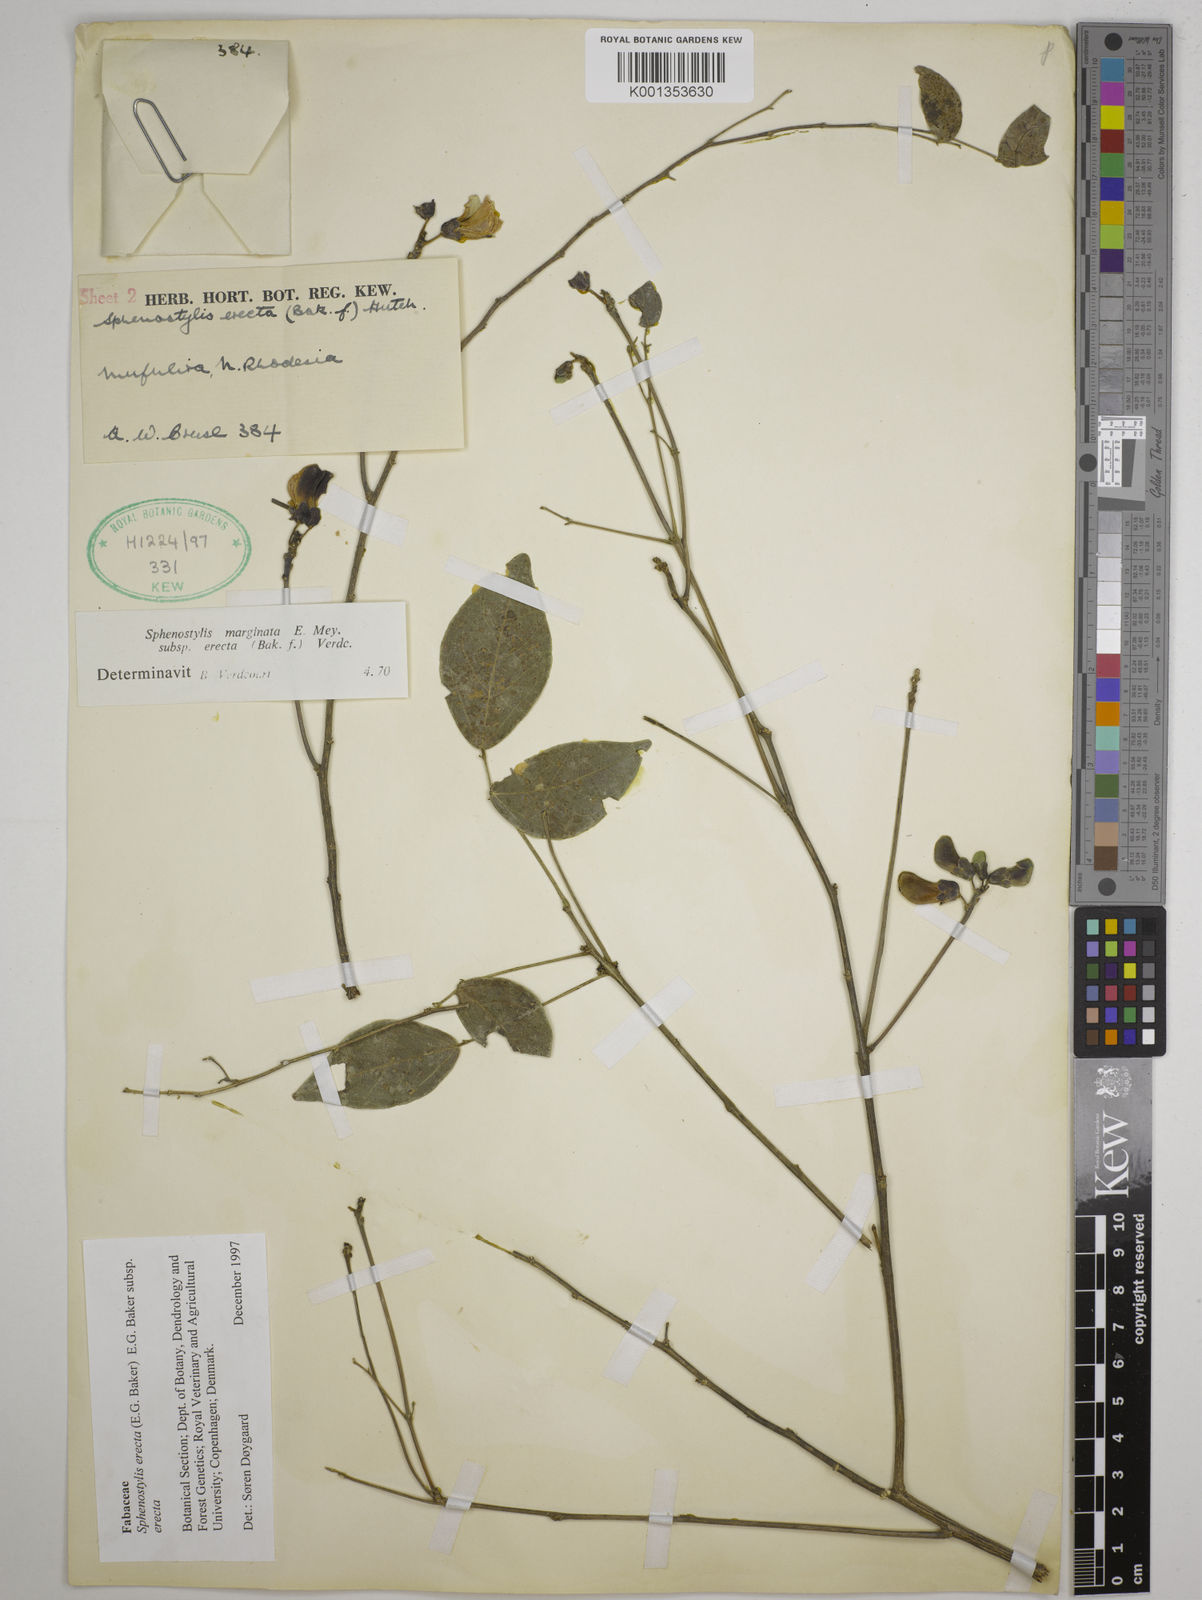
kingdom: Plantae
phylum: Tracheophyta
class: Magnoliopsida
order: Fabales
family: Fabaceae
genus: Sphenostylis
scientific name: Sphenostylis erecta
